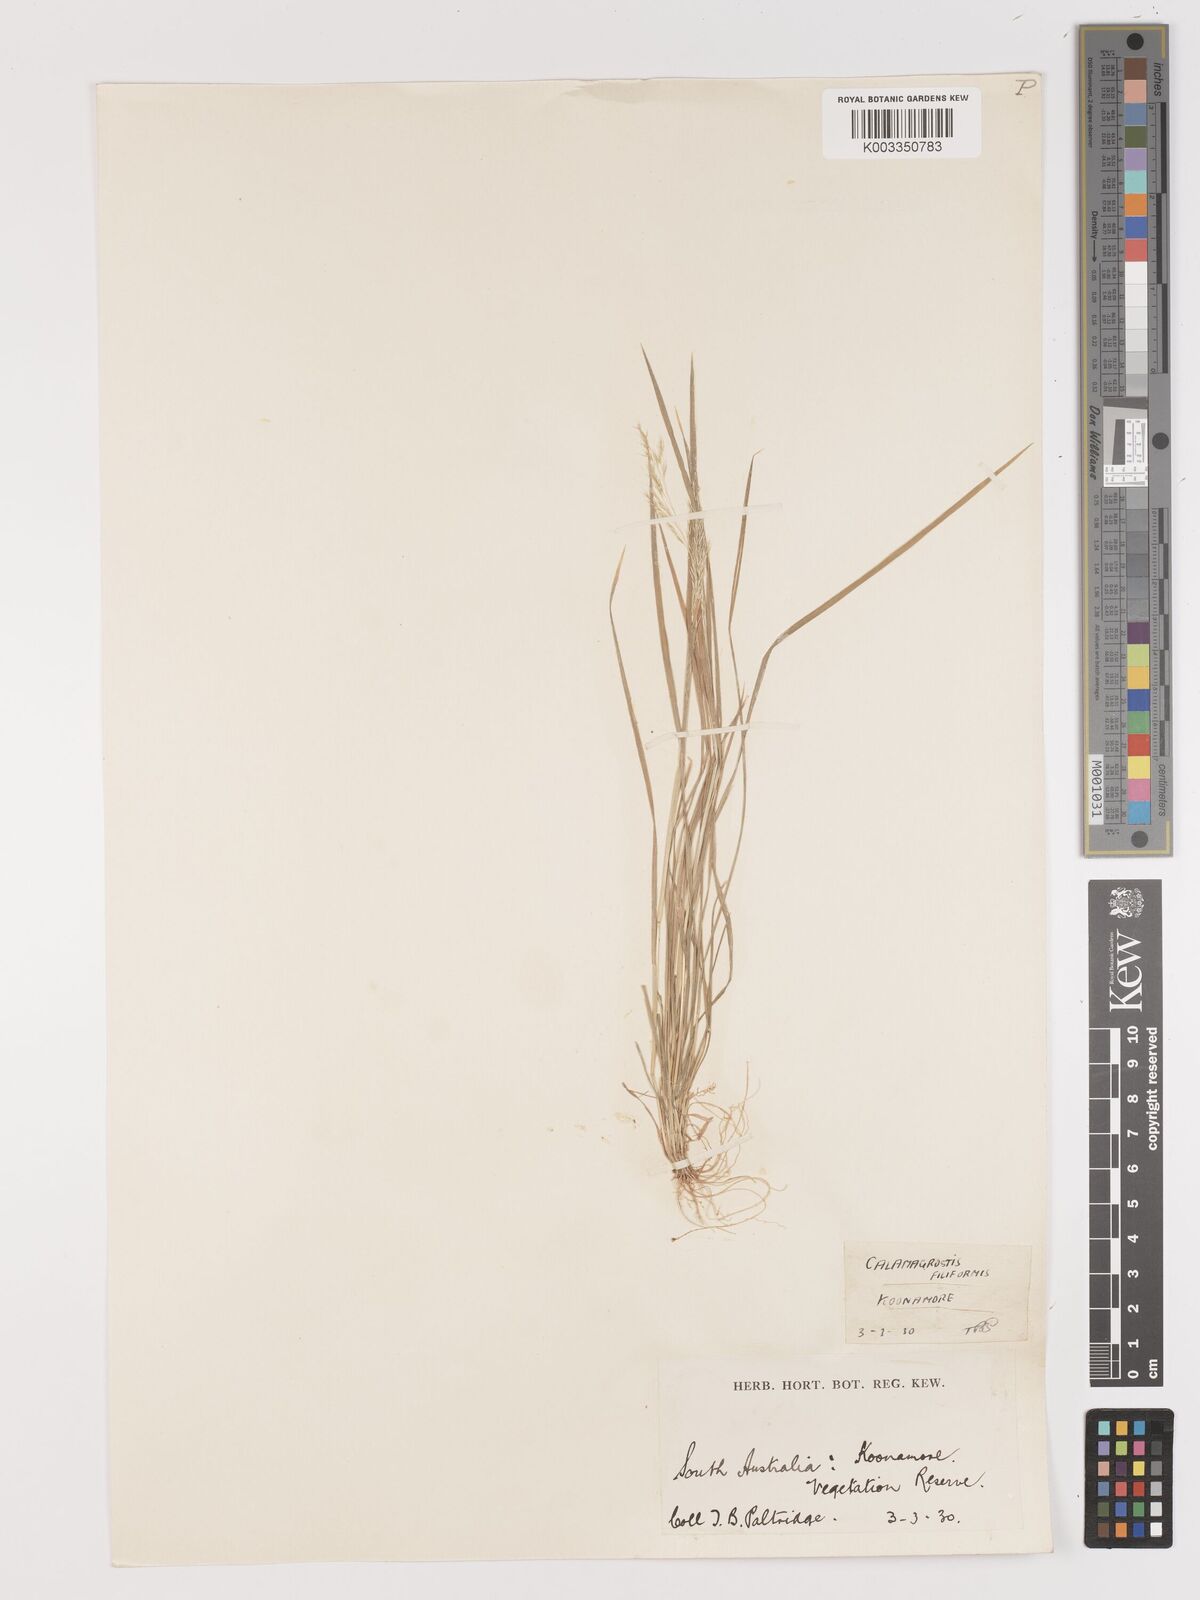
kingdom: Plantae
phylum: Tracheophyta
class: Liliopsida
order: Poales
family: Poaceae
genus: Lachnagrostis
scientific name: Lachnagrostis filiformis
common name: Bentgrass
